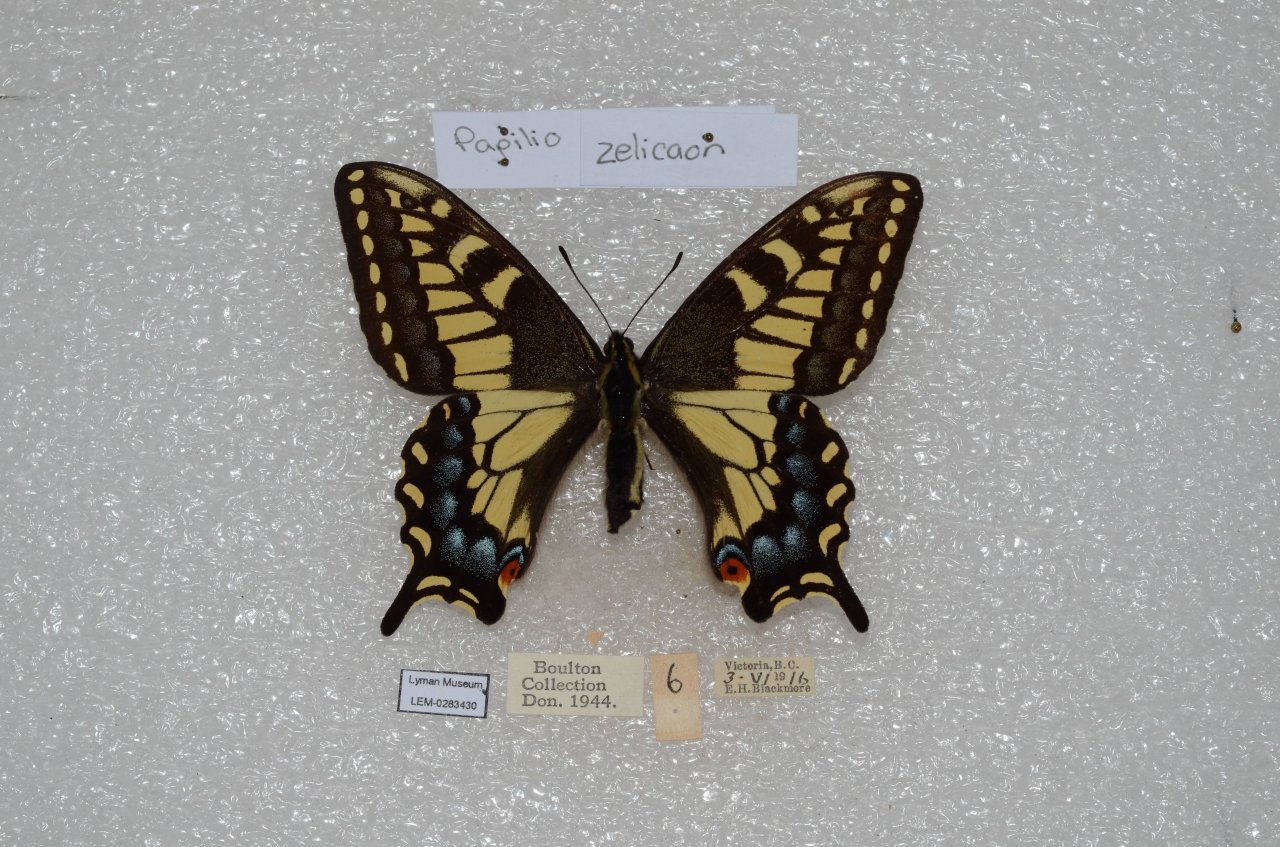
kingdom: Animalia
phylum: Arthropoda
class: Insecta
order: Lepidoptera
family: Papilionidae
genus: Papilio
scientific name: Papilio zelicaon
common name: Anise Swallowtail
